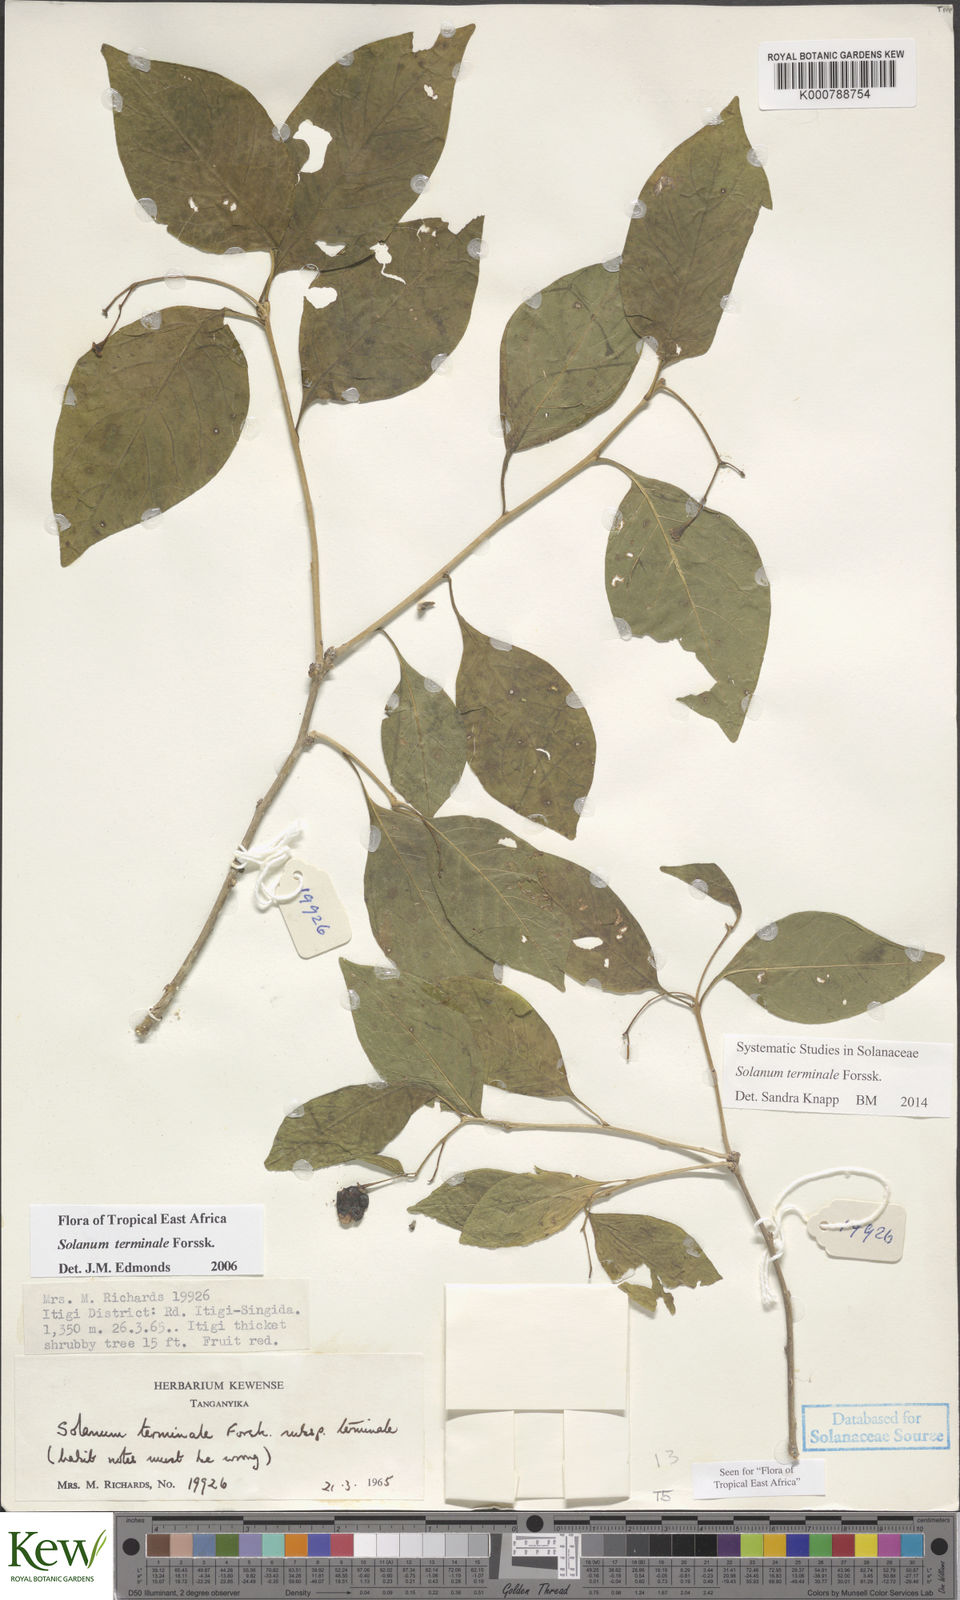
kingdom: Plantae
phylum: Tracheophyta
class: Magnoliopsida
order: Solanales
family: Solanaceae
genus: Solanum
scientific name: Solanum terminale
